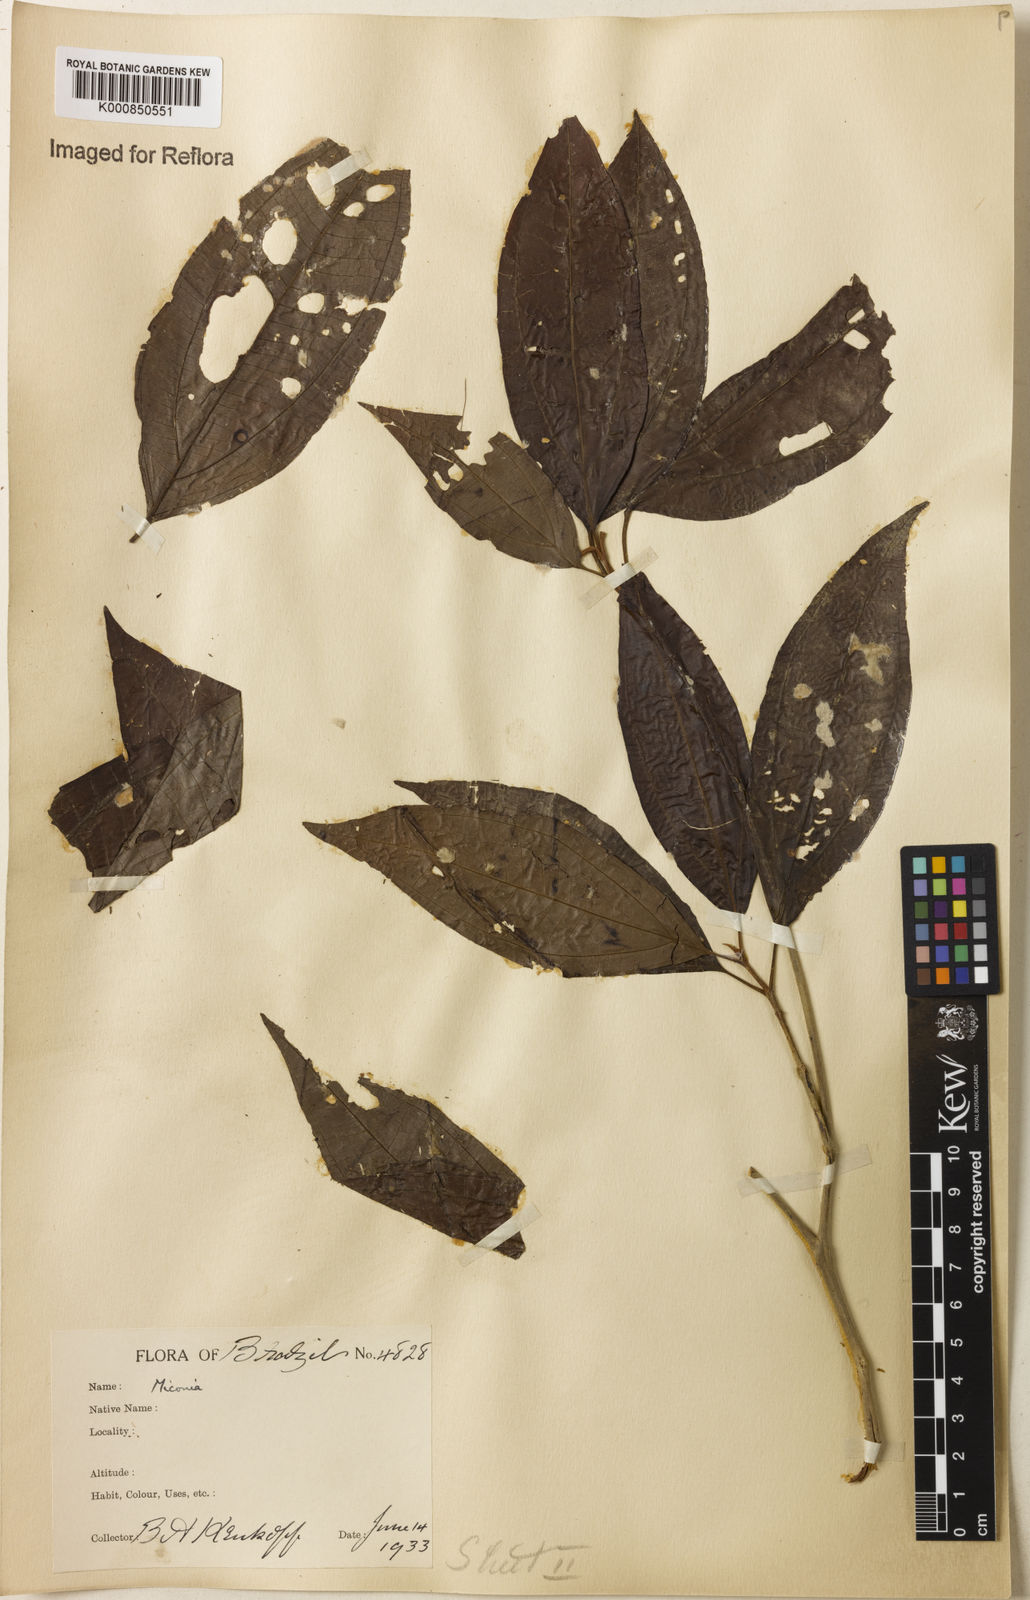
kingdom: Plantae
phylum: Tracheophyta
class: Magnoliopsida
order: Myrtales
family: Melastomataceae
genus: Miconia
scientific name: Miconia
